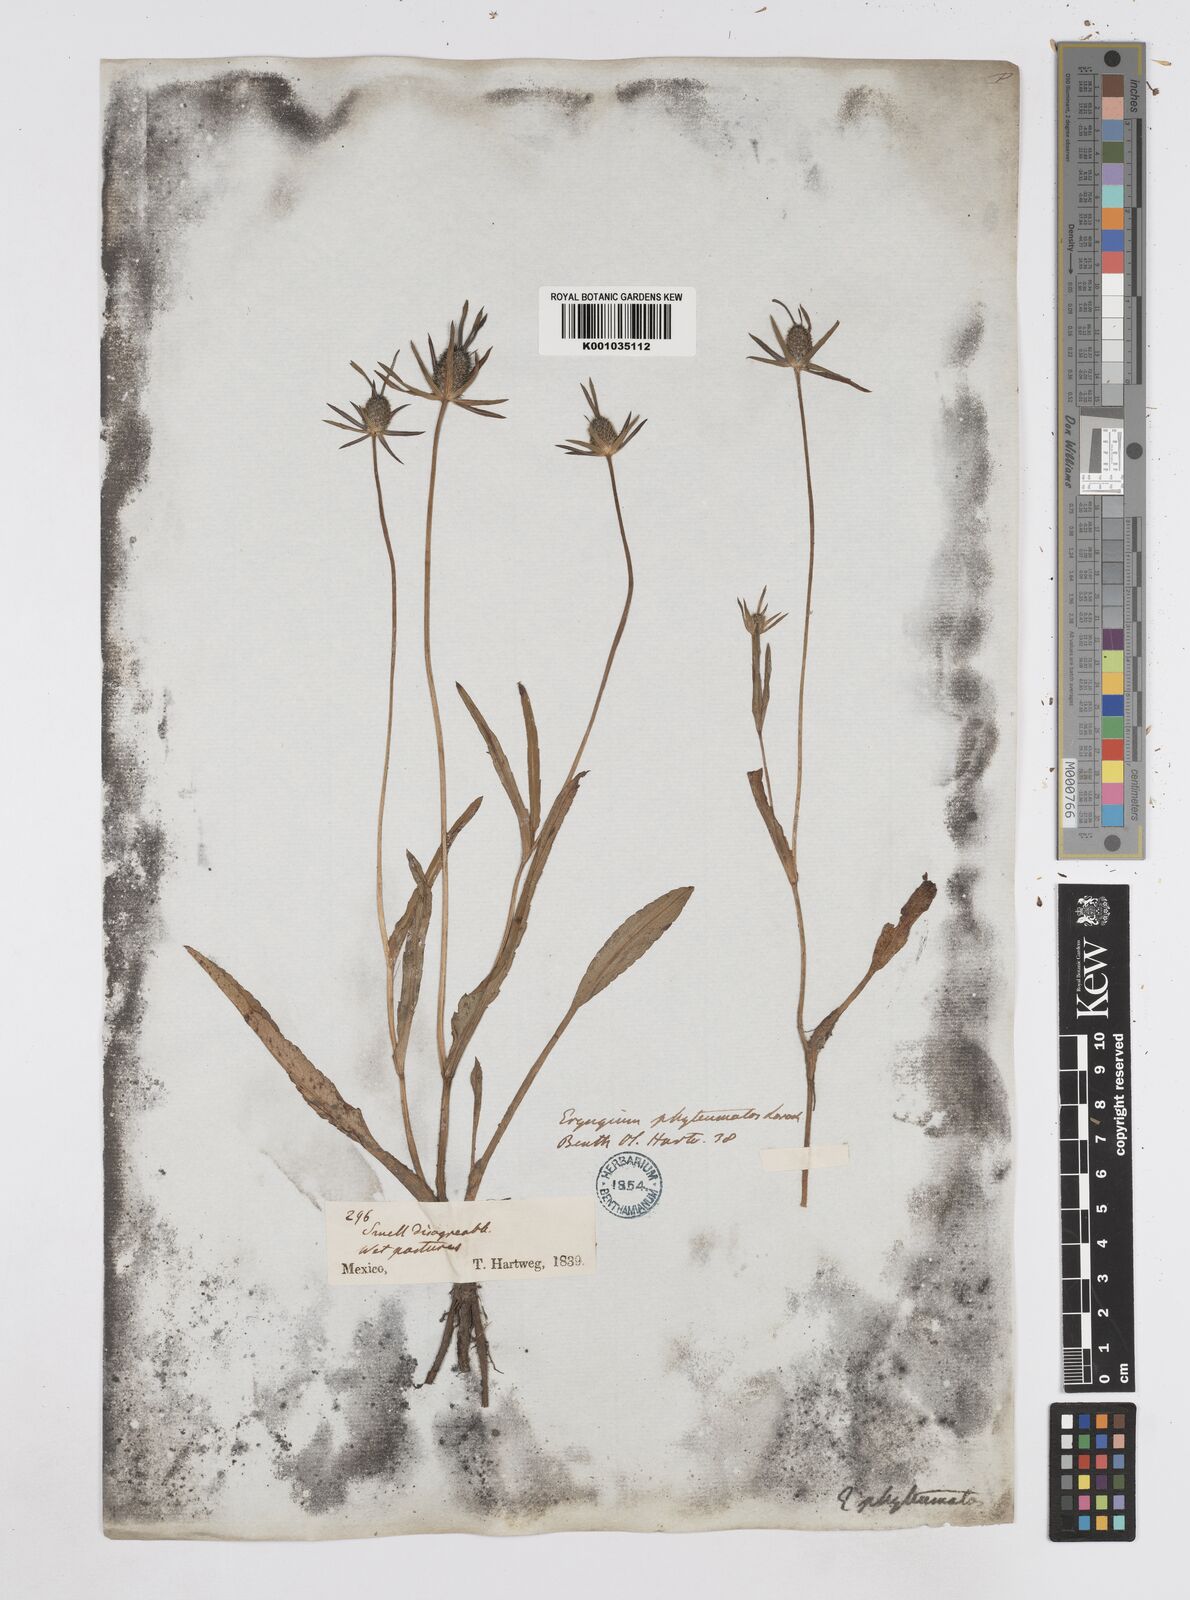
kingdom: Plantae
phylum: Tracheophyta
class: Magnoliopsida
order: Apiales
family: Apiaceae
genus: Eryngium
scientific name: Eryngium phyteumae
